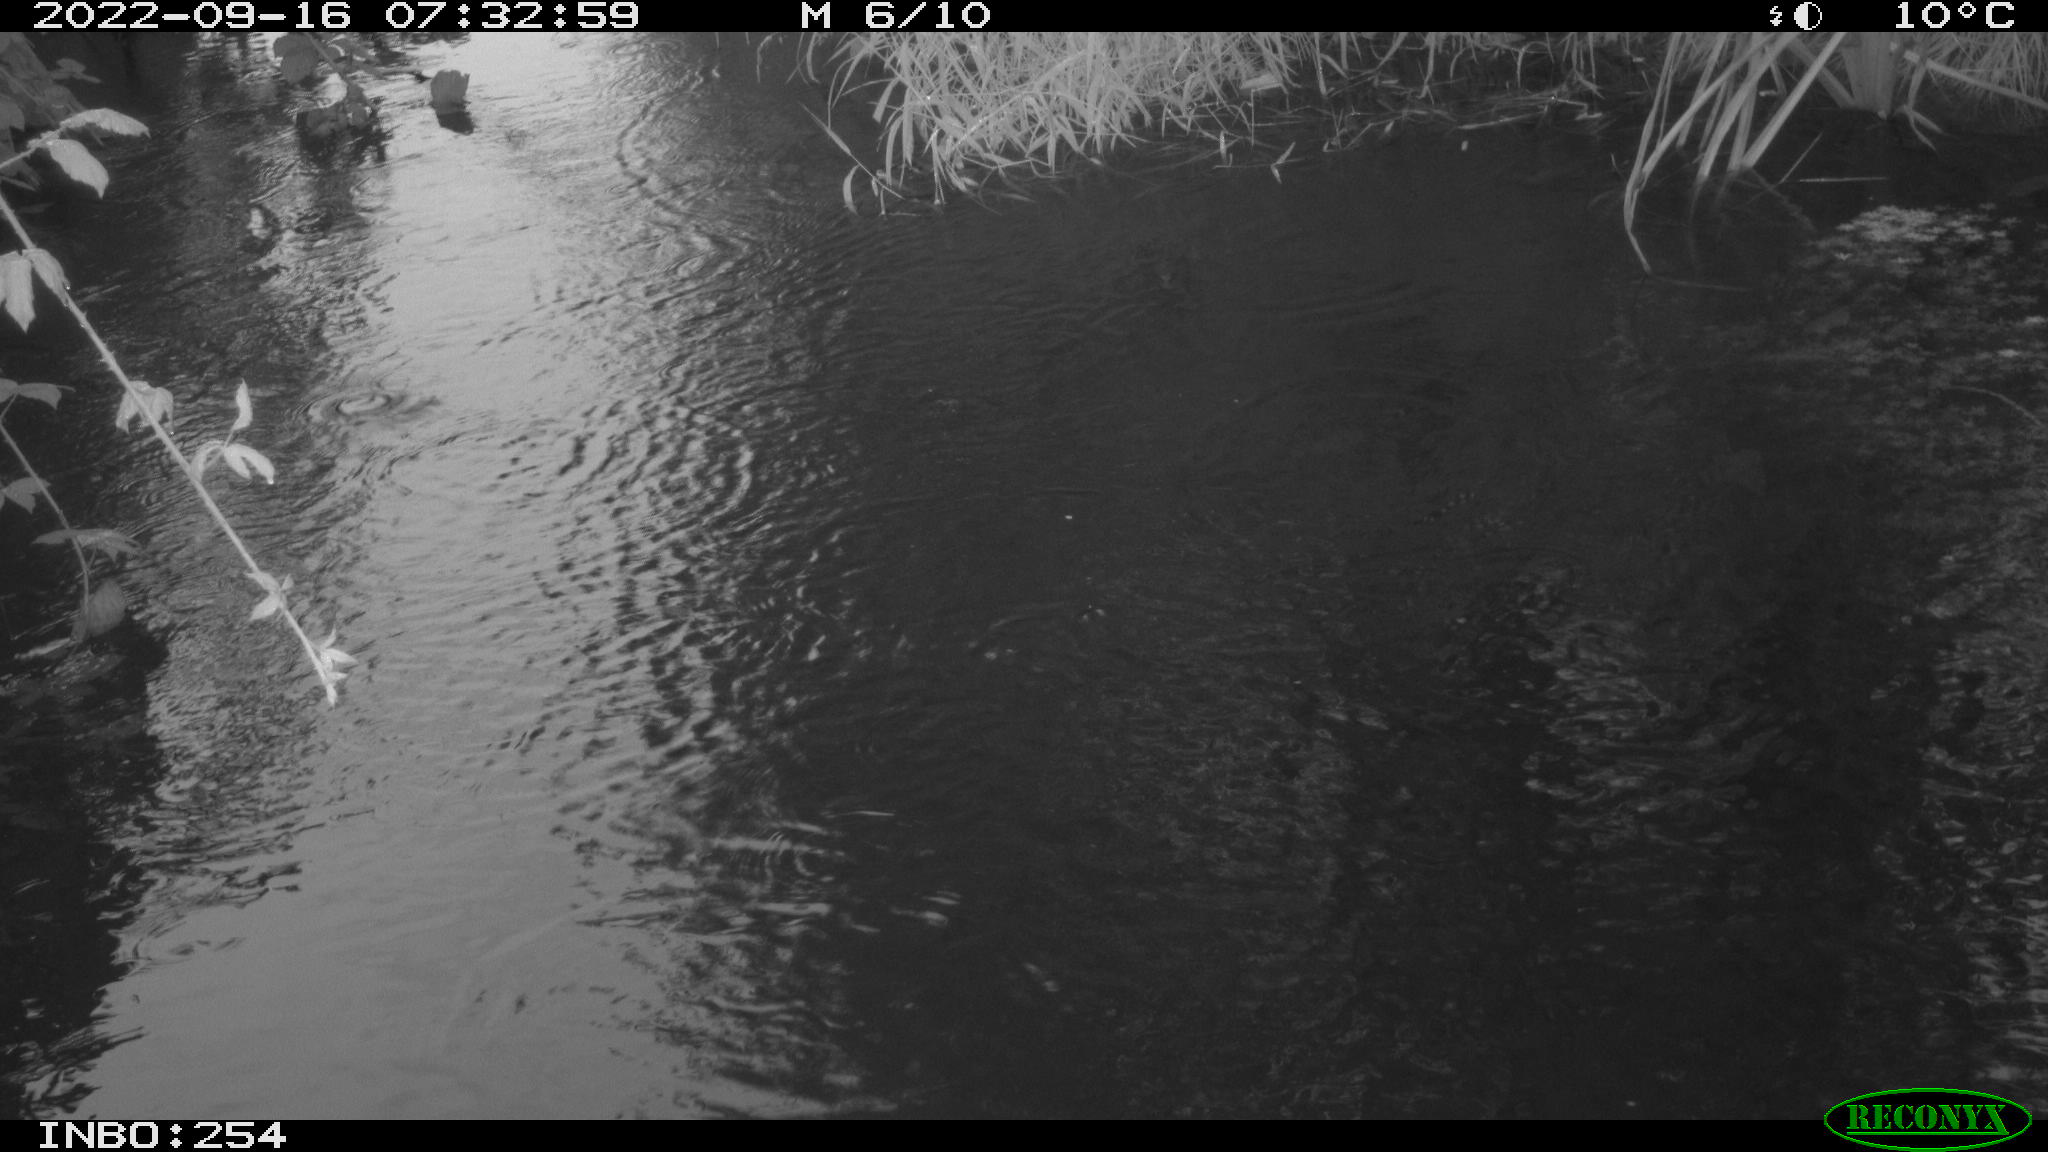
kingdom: Animalia
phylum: Chordata
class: Aves
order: Gruiformes
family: Rallidae
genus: Gallinula
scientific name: Gallinula chloropus
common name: Common moorhen
